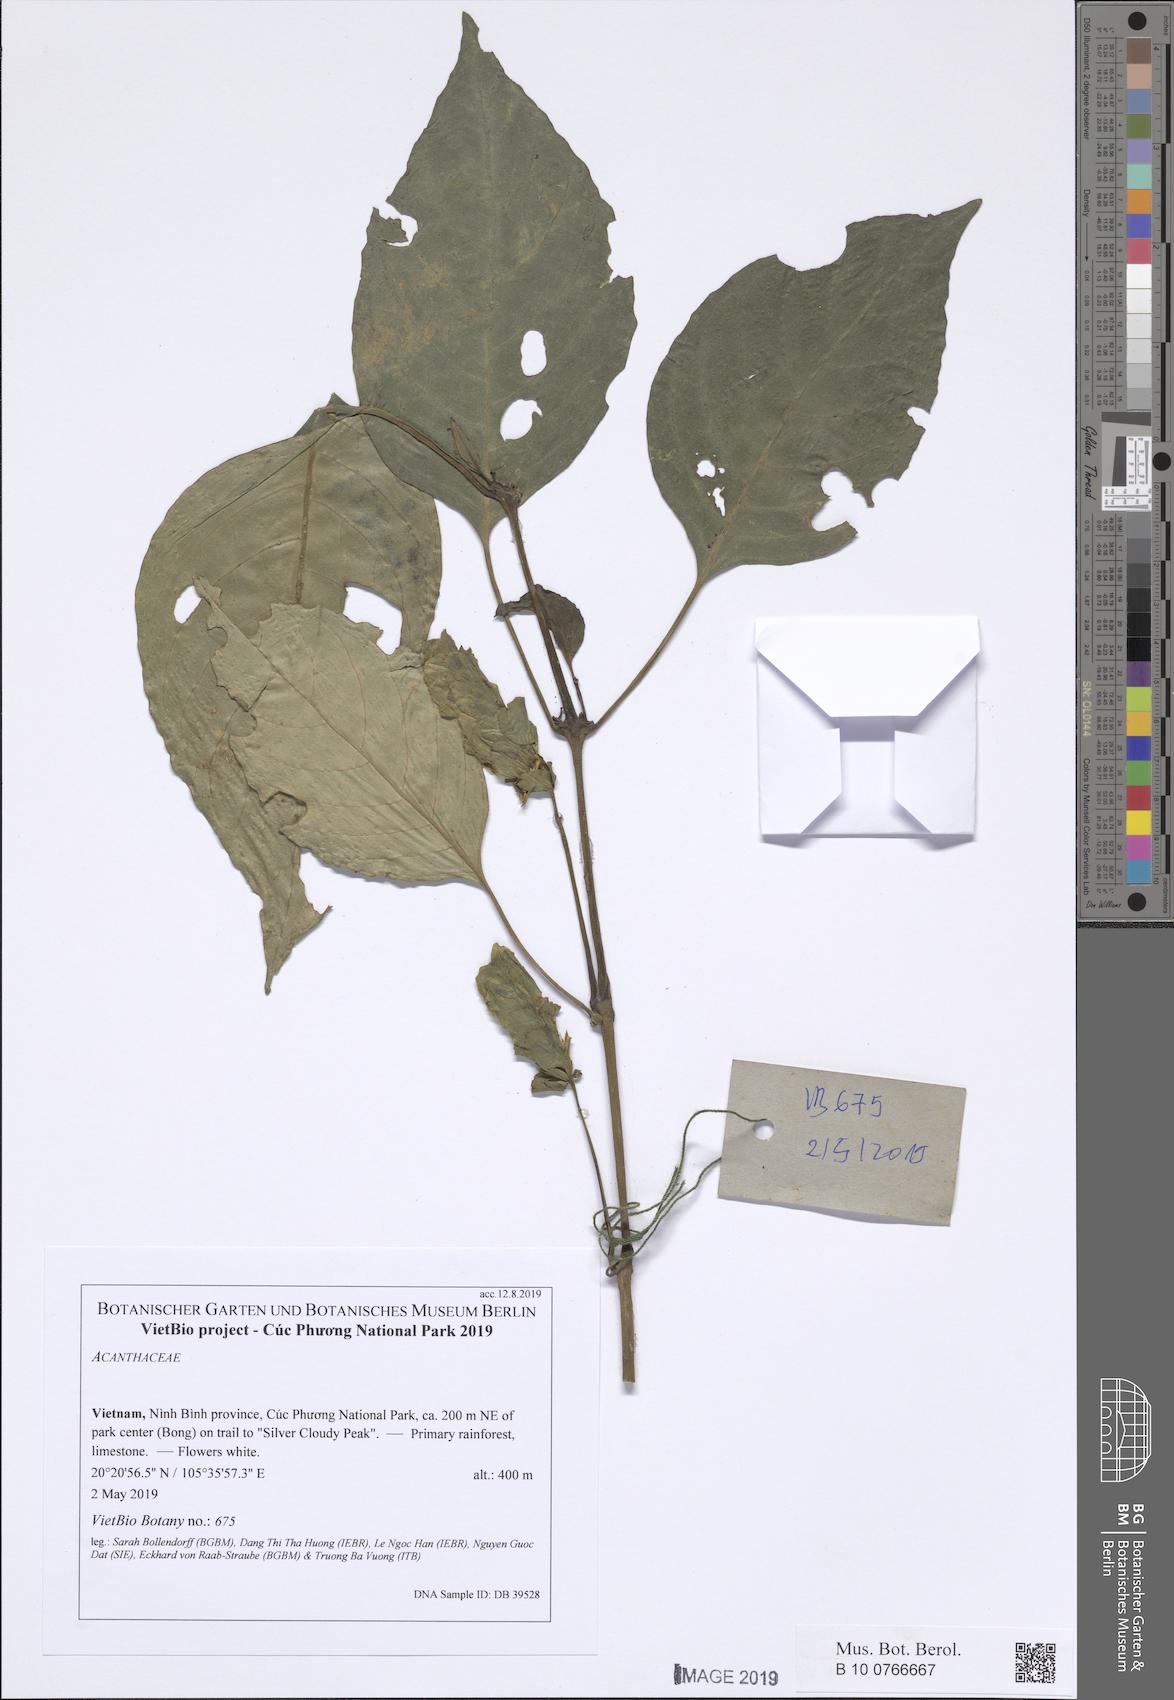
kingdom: Plantae
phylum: Tracheophyta
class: Magnoliopsida
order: Lamiales
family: Acanthaceae
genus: Rungia
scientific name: Rungia monetaria
